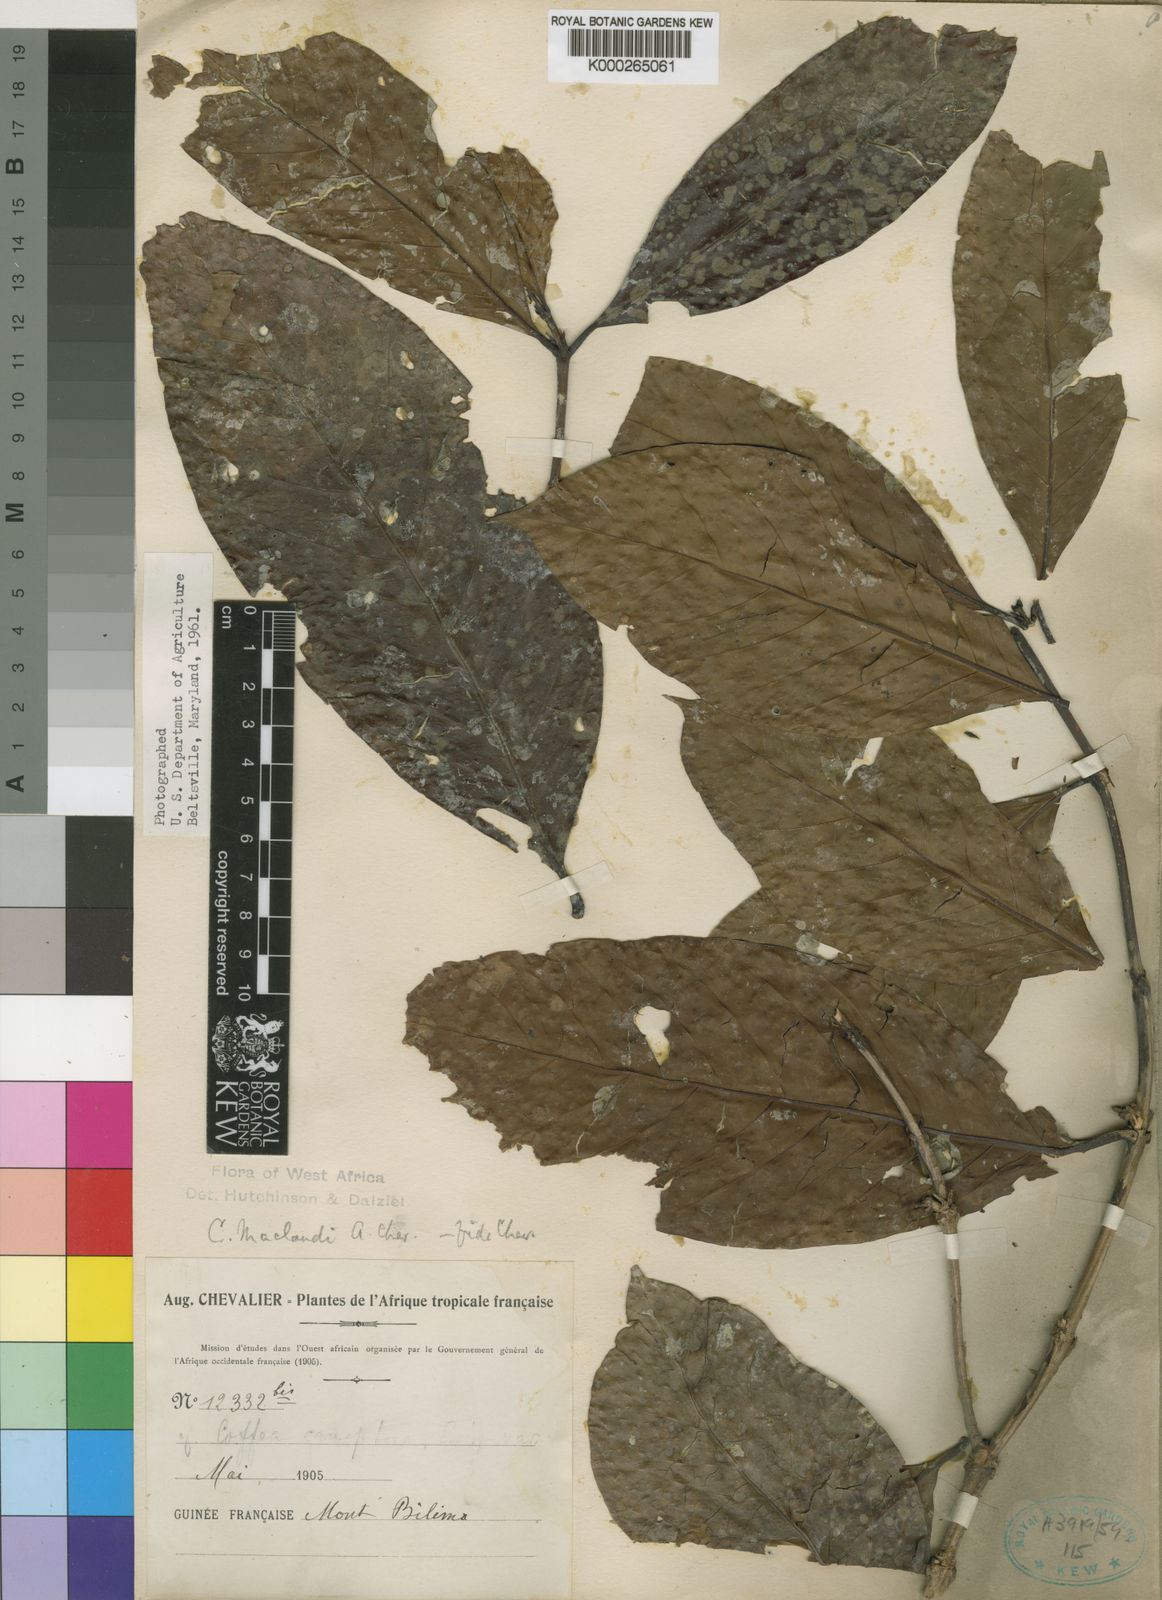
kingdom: Plantae
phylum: Tracheophyta
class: Magnoliopsida
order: Gentianales
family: Rubiaceae
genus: Coffea
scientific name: Coffea canephora
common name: Robusta coffee
